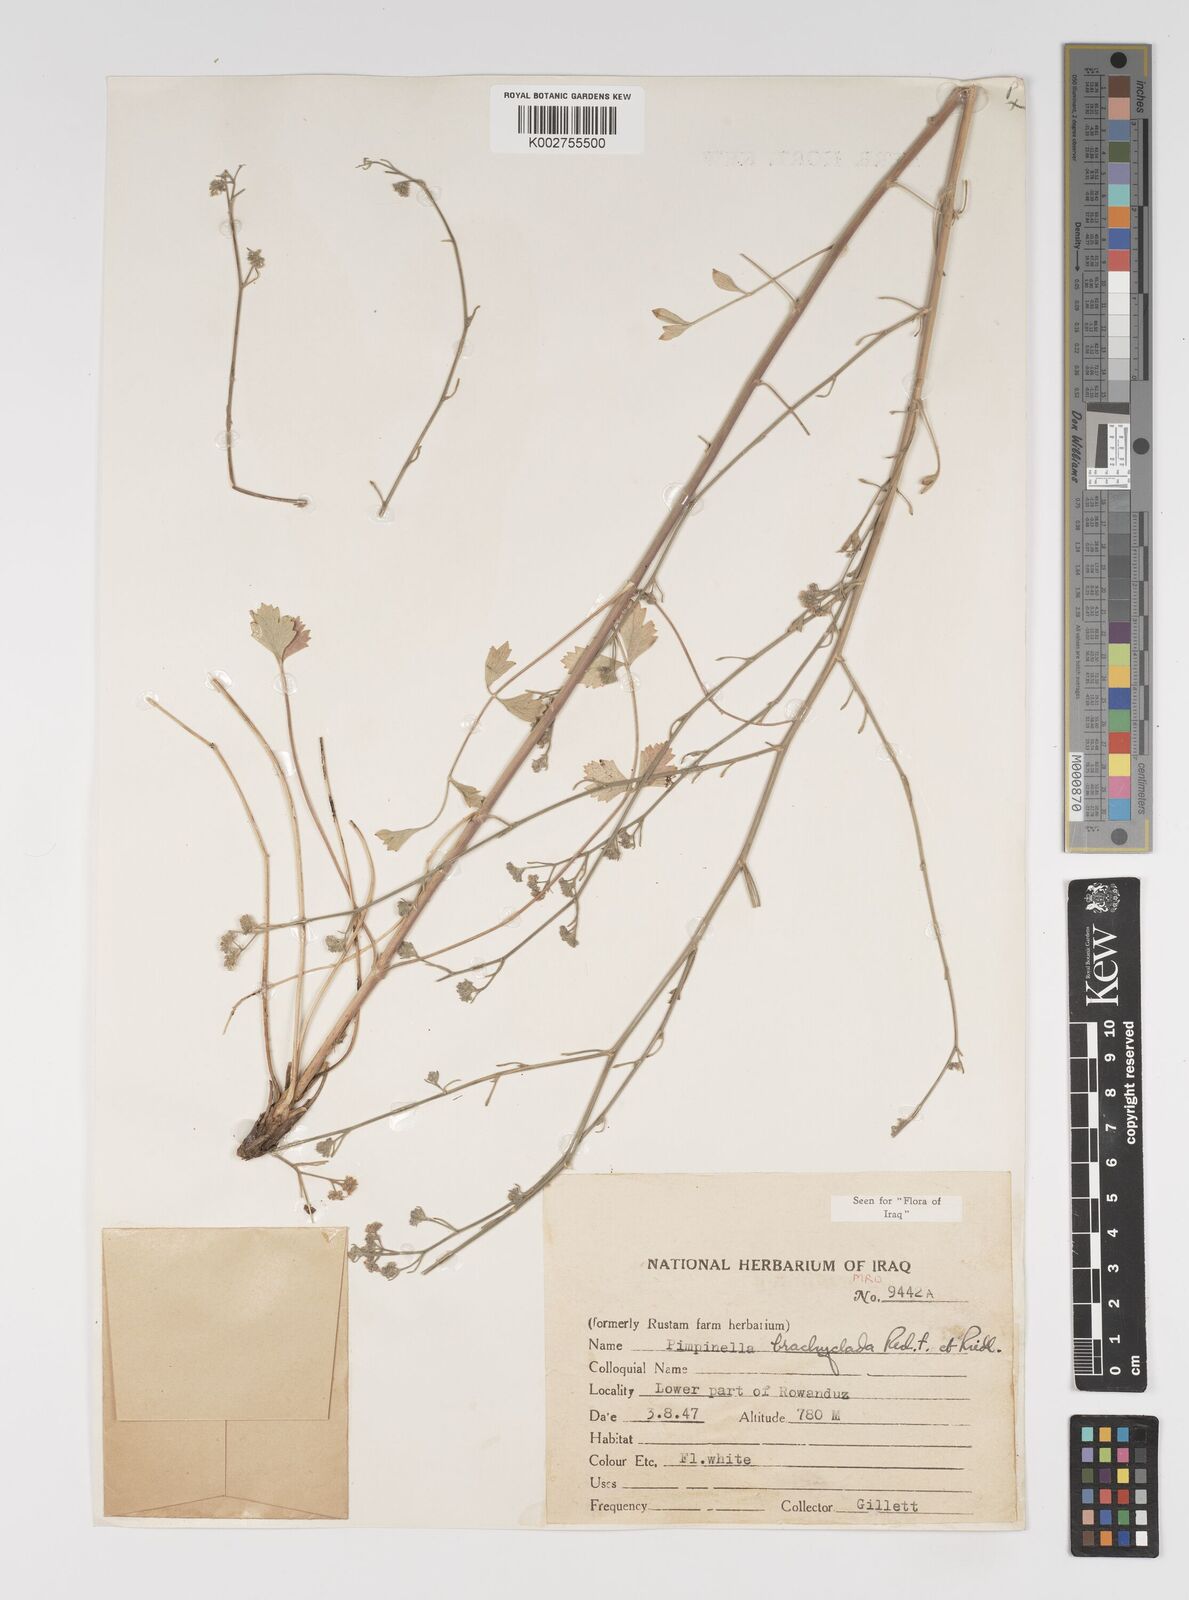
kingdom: Plantae
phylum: Tracheophyta
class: Magnoliopsida
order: Apiales
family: Apiaceae
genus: Pimpinella
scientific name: Pimpinella brachyclada
